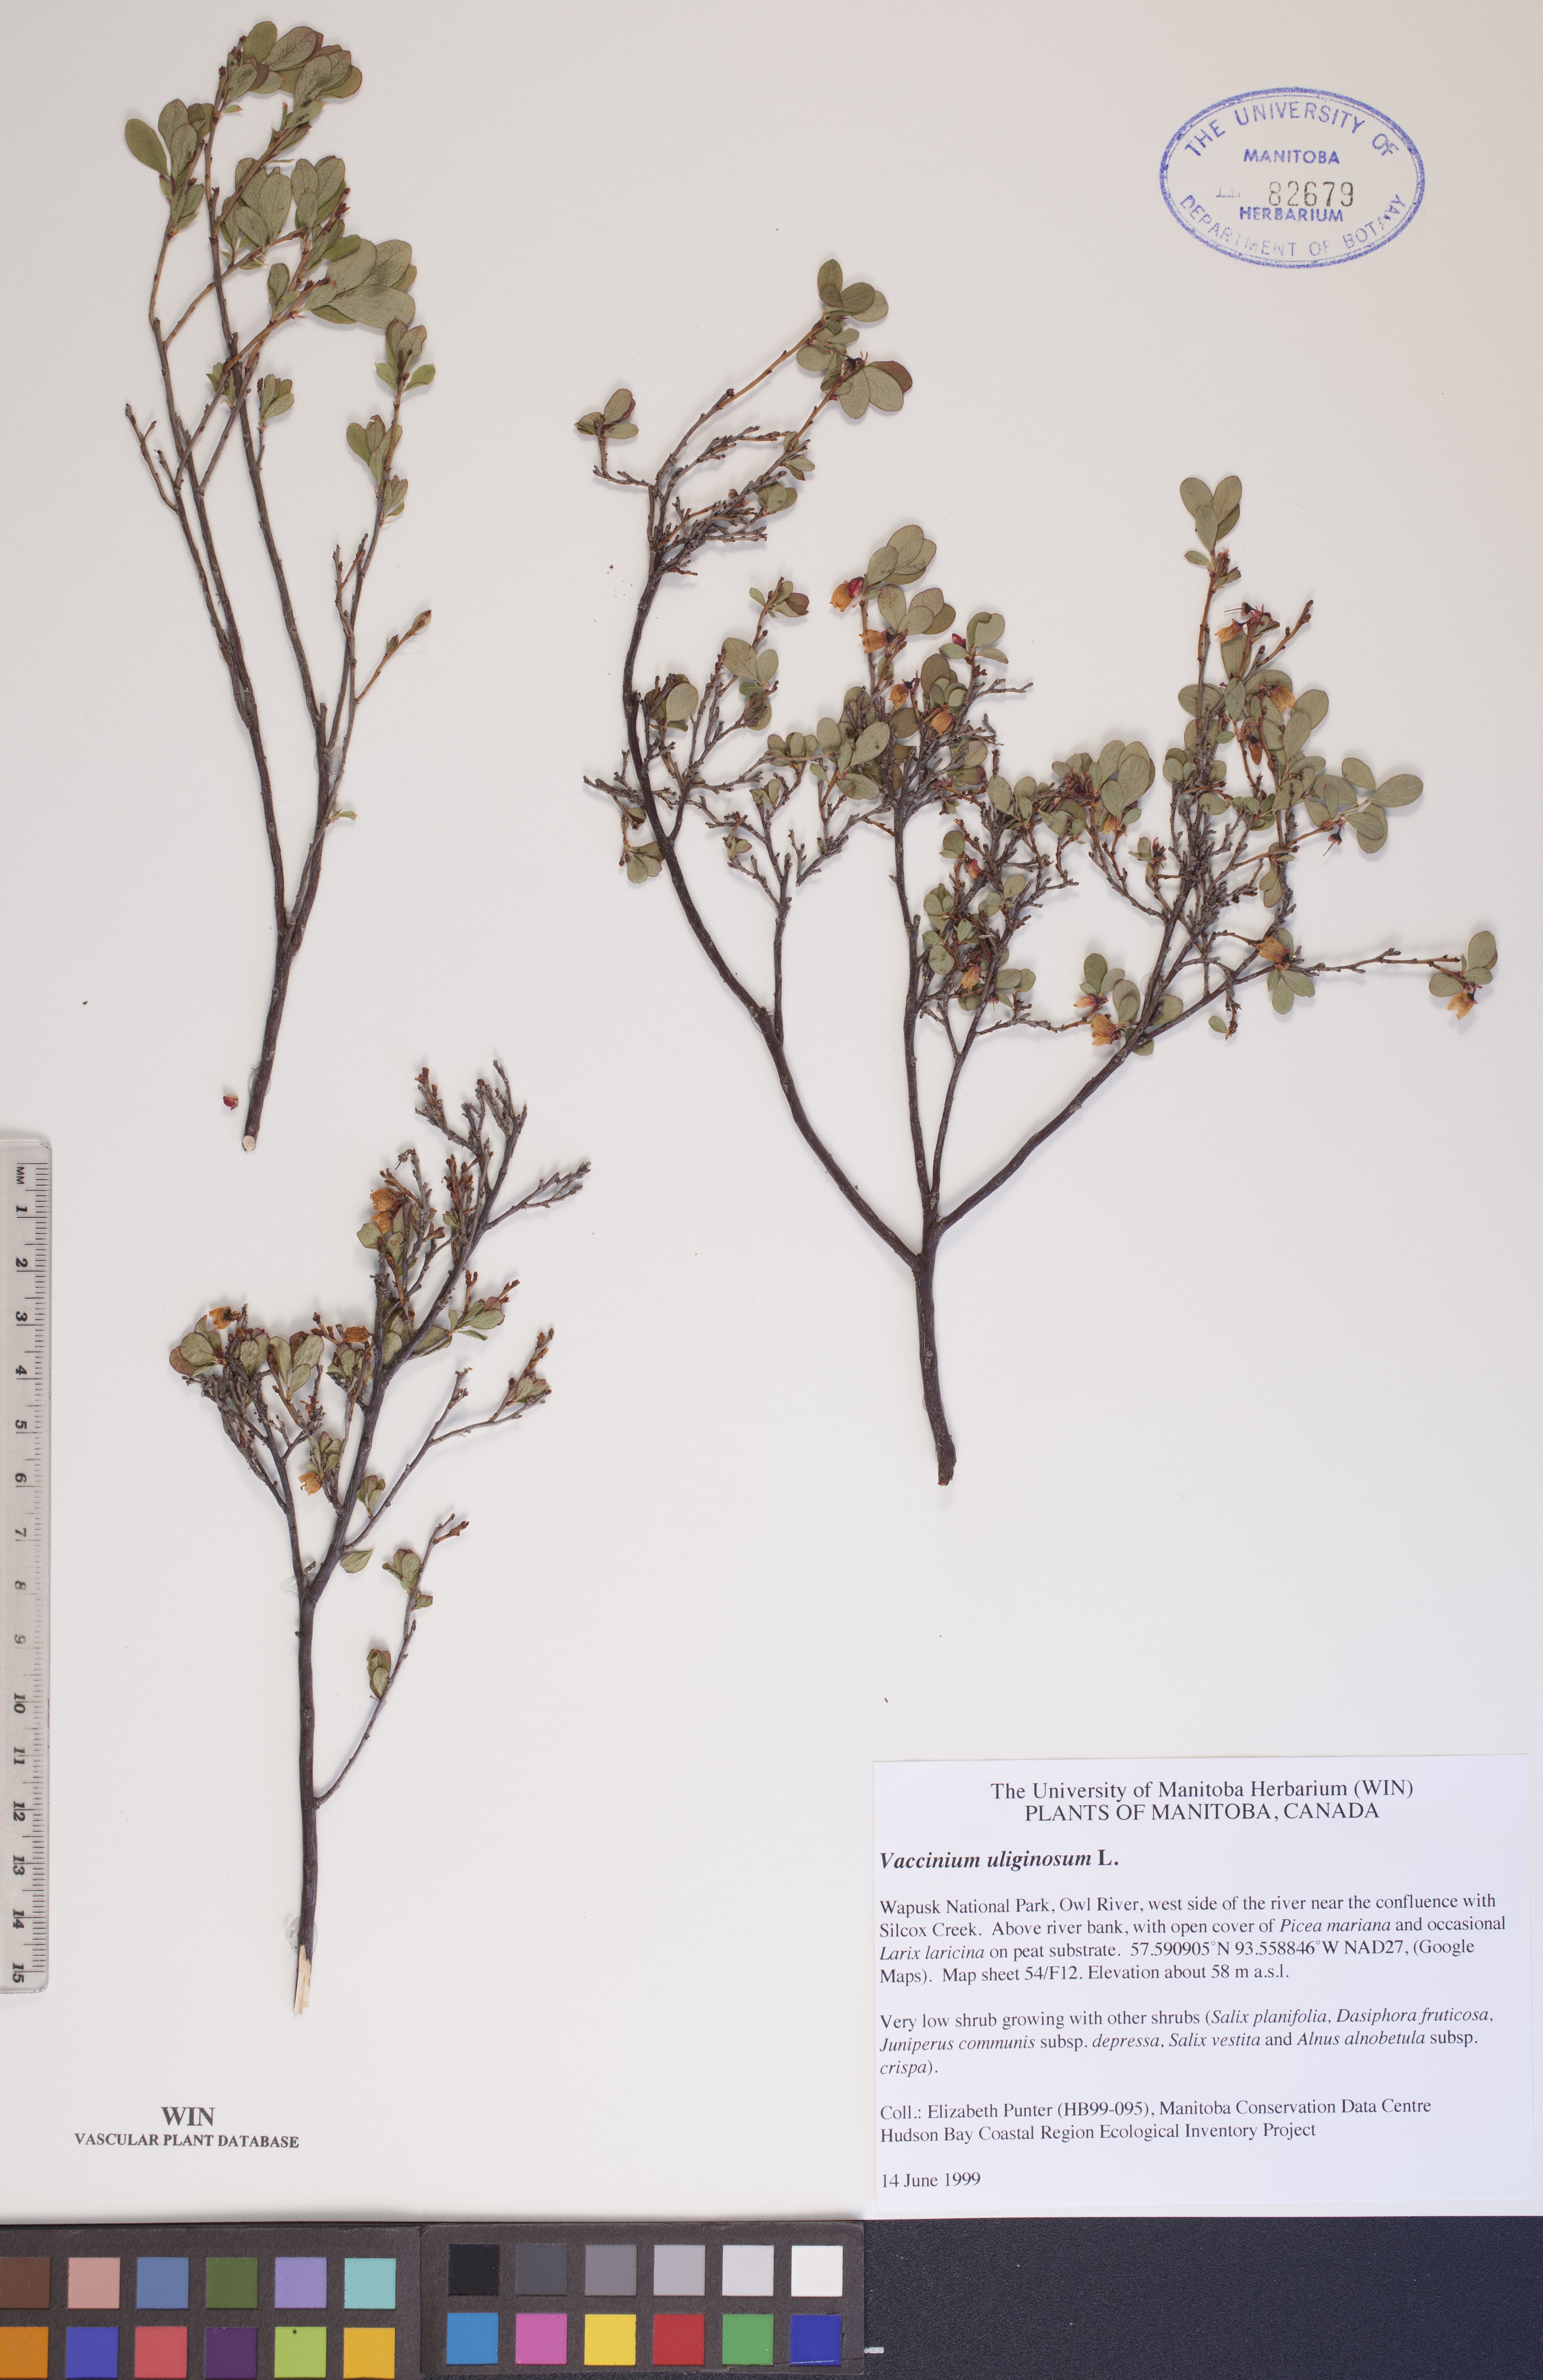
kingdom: Plantae
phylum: Tracheophyta
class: Magnoliopsida
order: Ericales
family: Ericaceae
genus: Vaccinium
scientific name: Vaccinium uliginosum
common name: Bog bilberry
